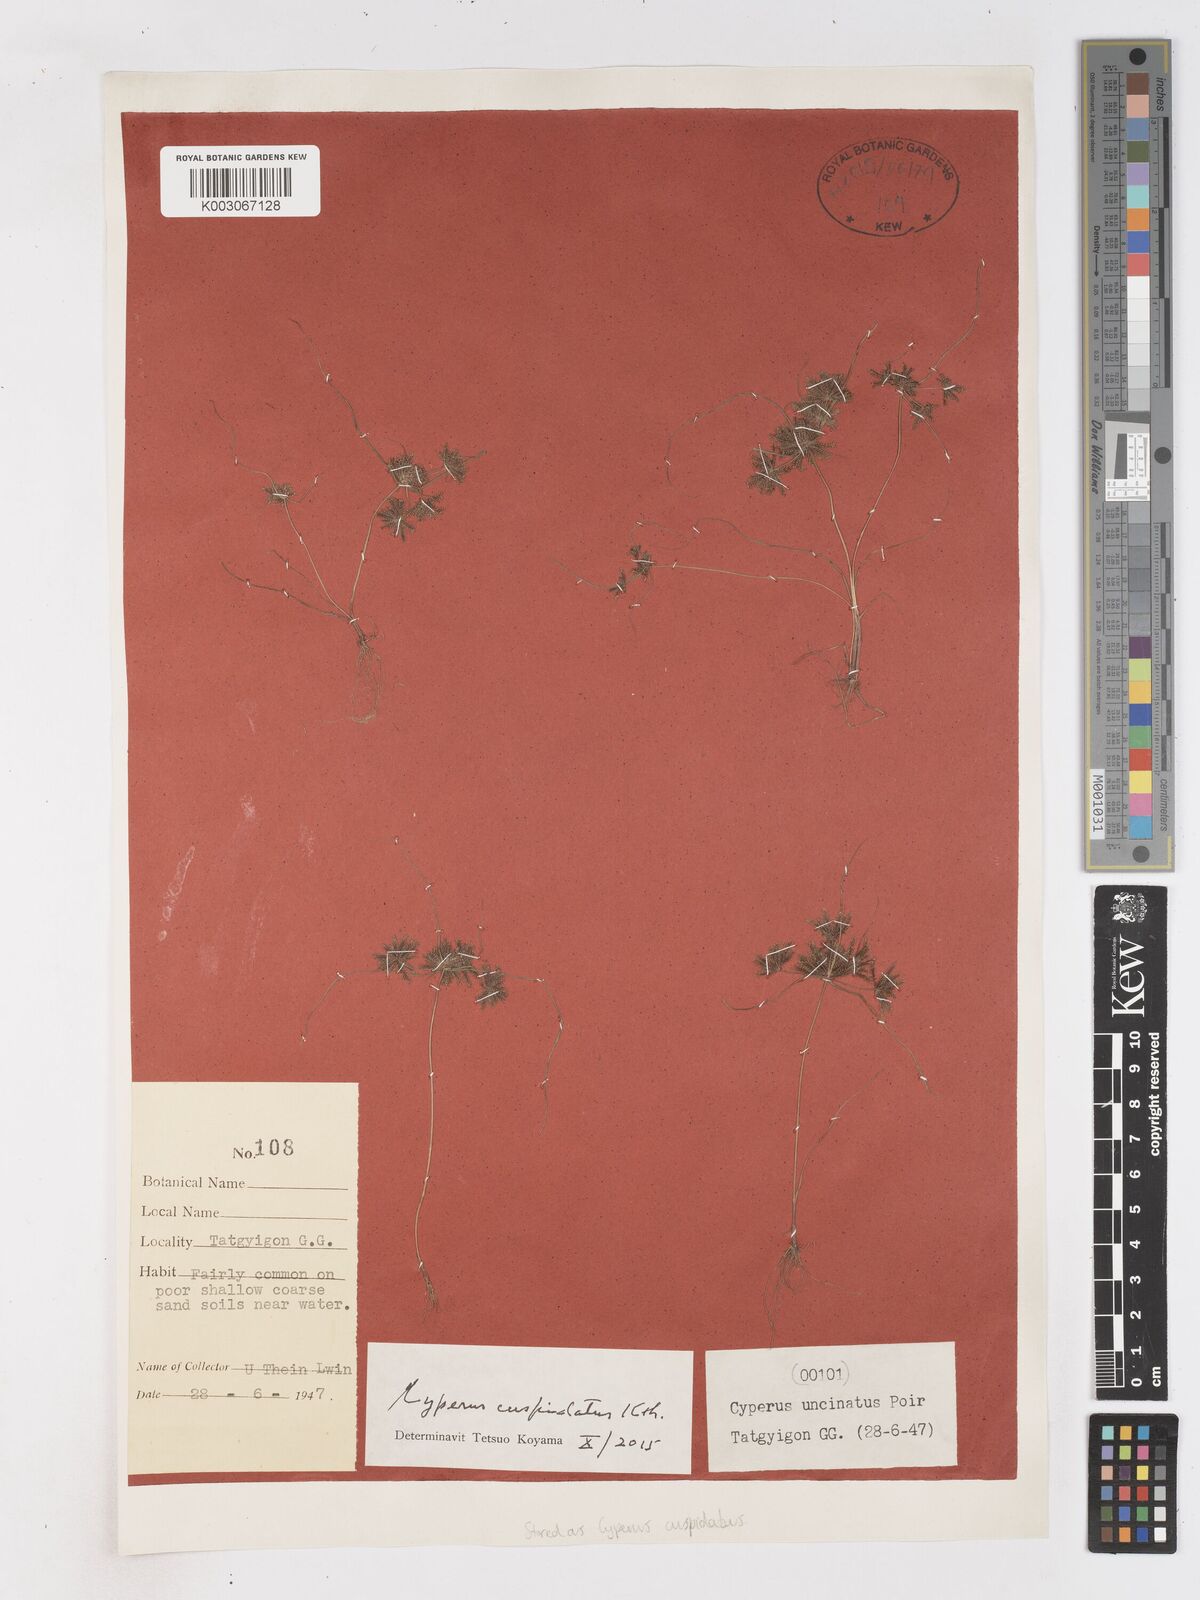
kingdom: Plantae
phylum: Tracheophyta
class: Liliopsida
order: Poales
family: Cyperaceae
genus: Cyperus
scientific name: Cyperus cuspidatus
